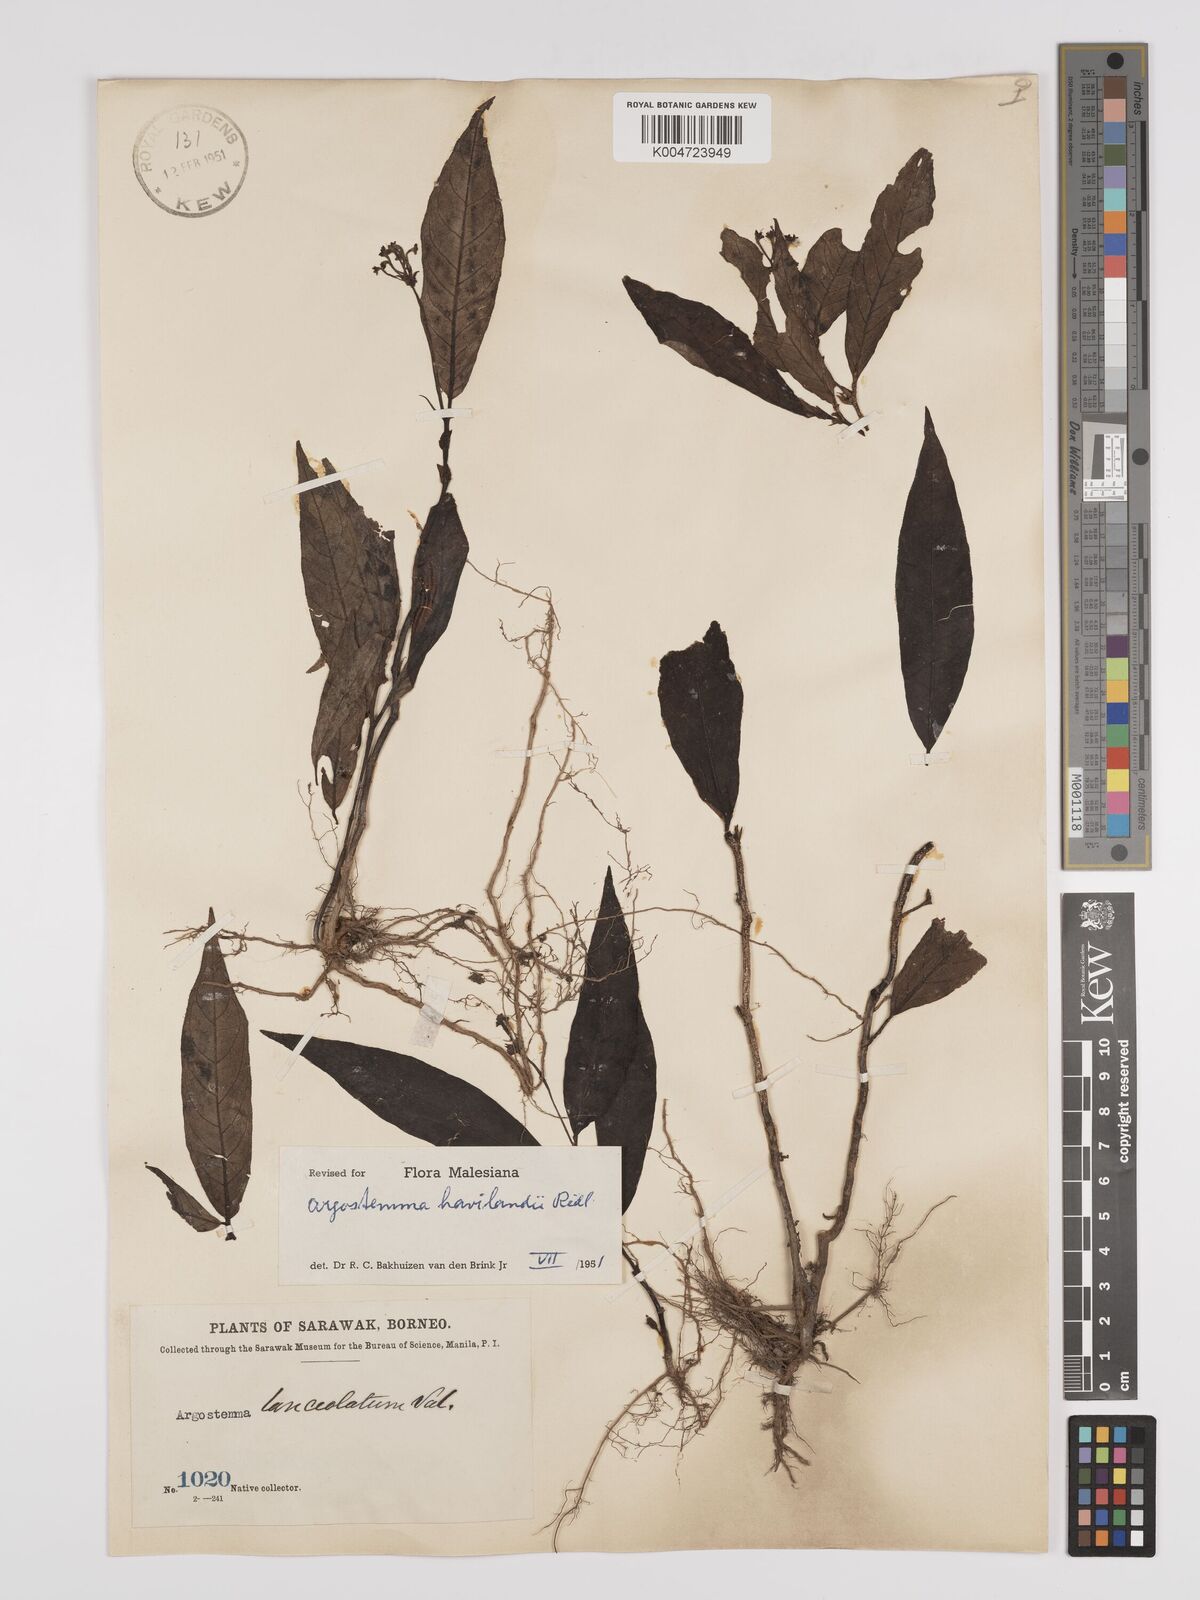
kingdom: Plantae
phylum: Tracheophyta
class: Magnoliopsida
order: Gentianales
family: Rubiaceae
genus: Argostemma
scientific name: Argostemma havilandii
